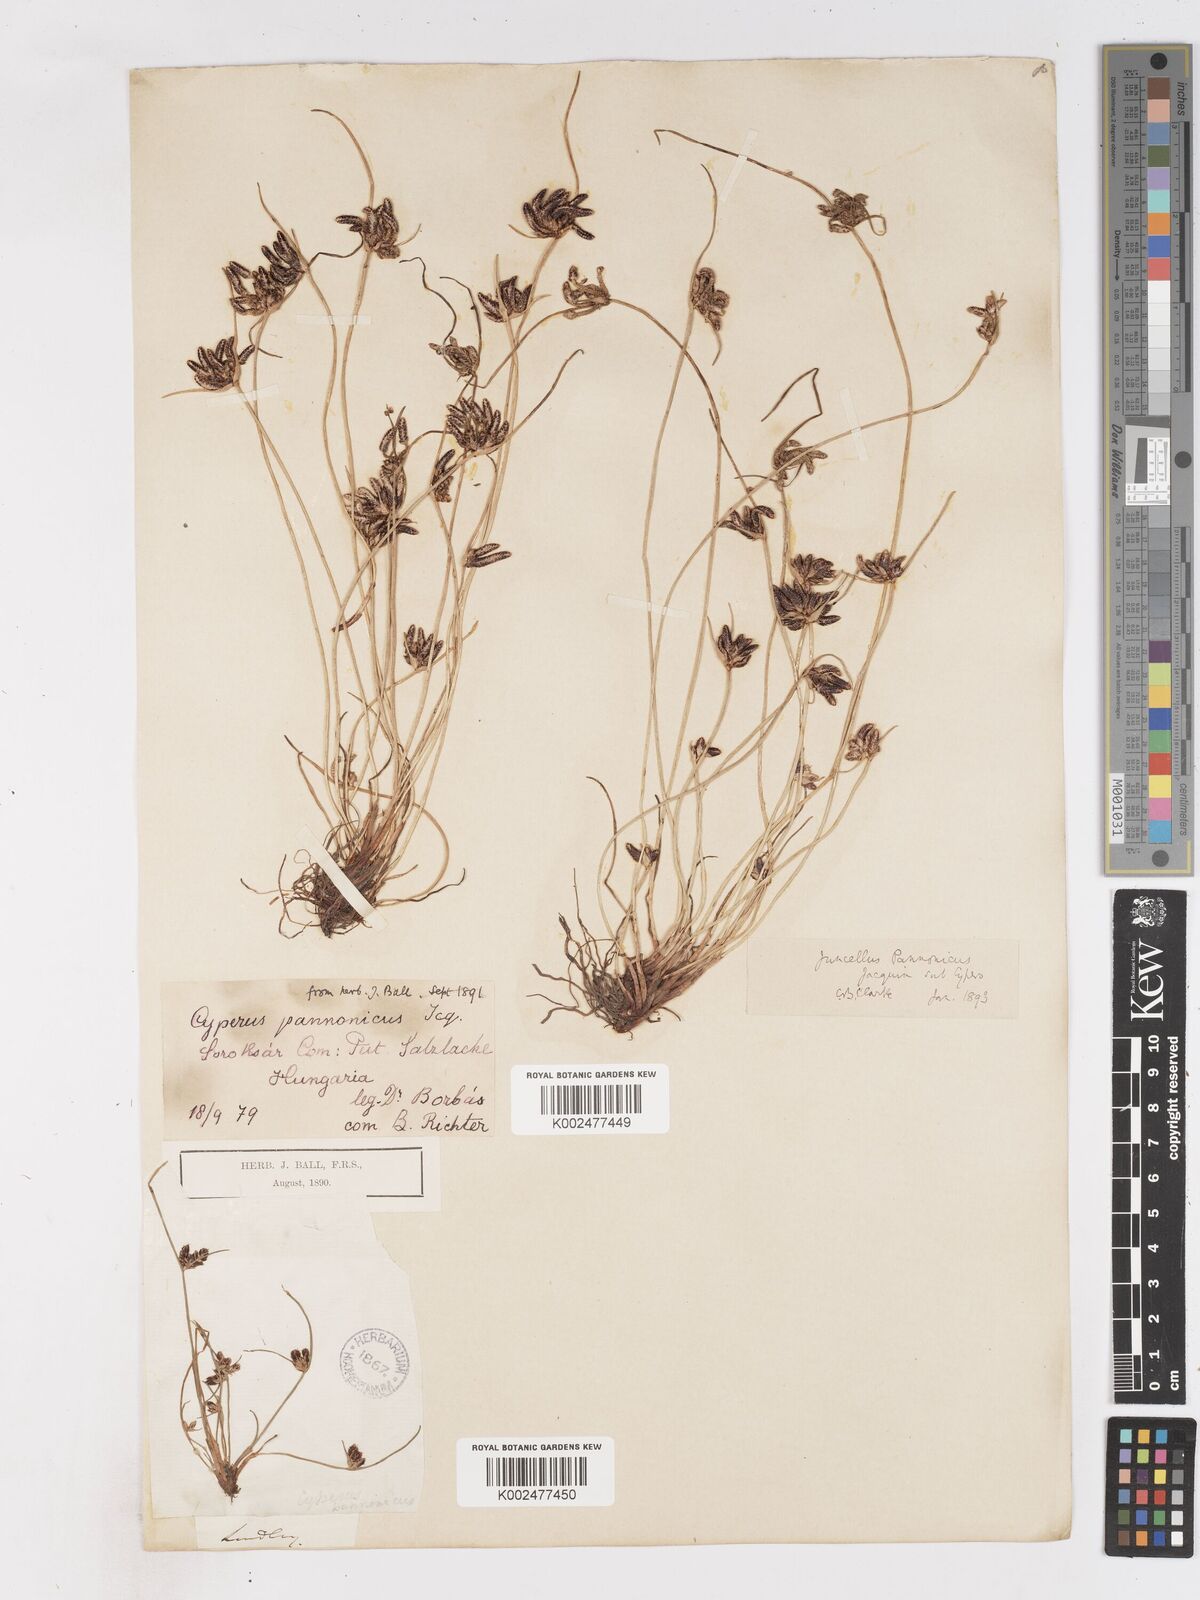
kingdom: Plantae
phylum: Tracheophyta
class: Liliopsida
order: Poales
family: Cyperaceae
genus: Cyperus
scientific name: Cyperus pannonicus
